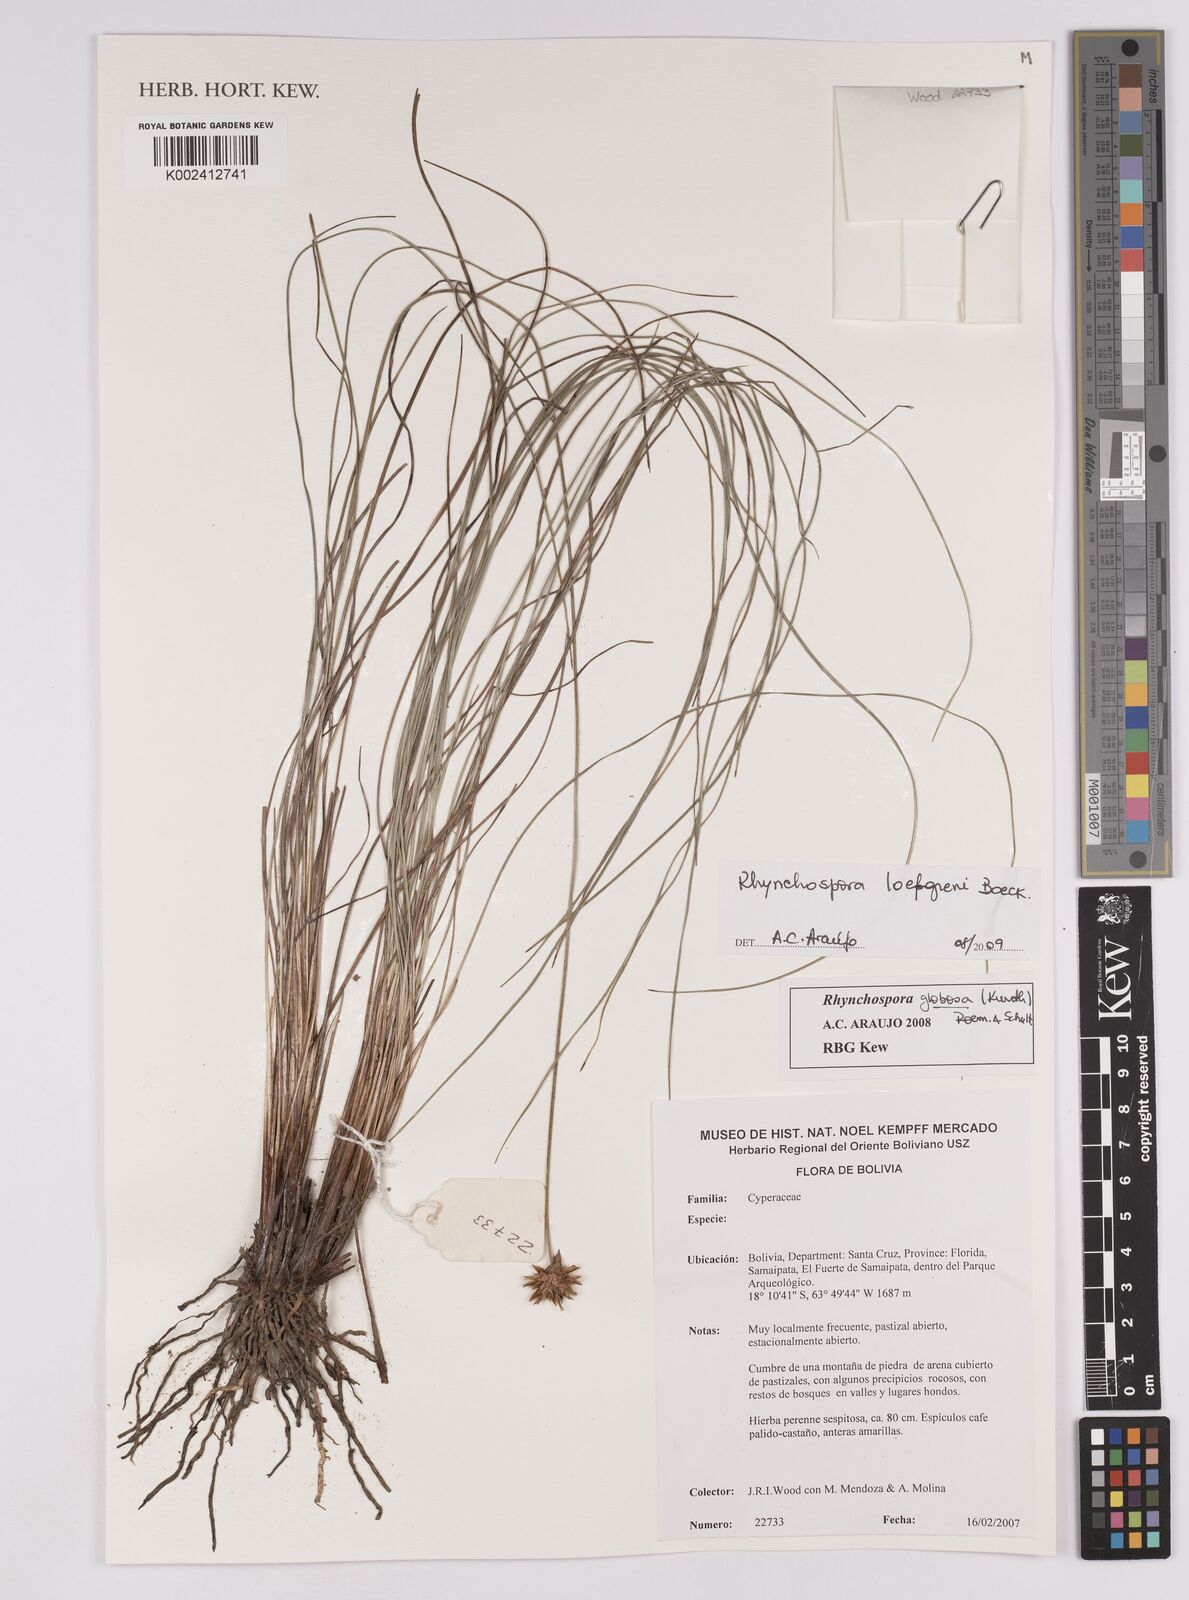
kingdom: Plantae
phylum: Tracheophyta
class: Liliopsida
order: Poales
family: Cyperaceae
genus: Rhynchospora
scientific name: Rhynchospora loefgrenii
